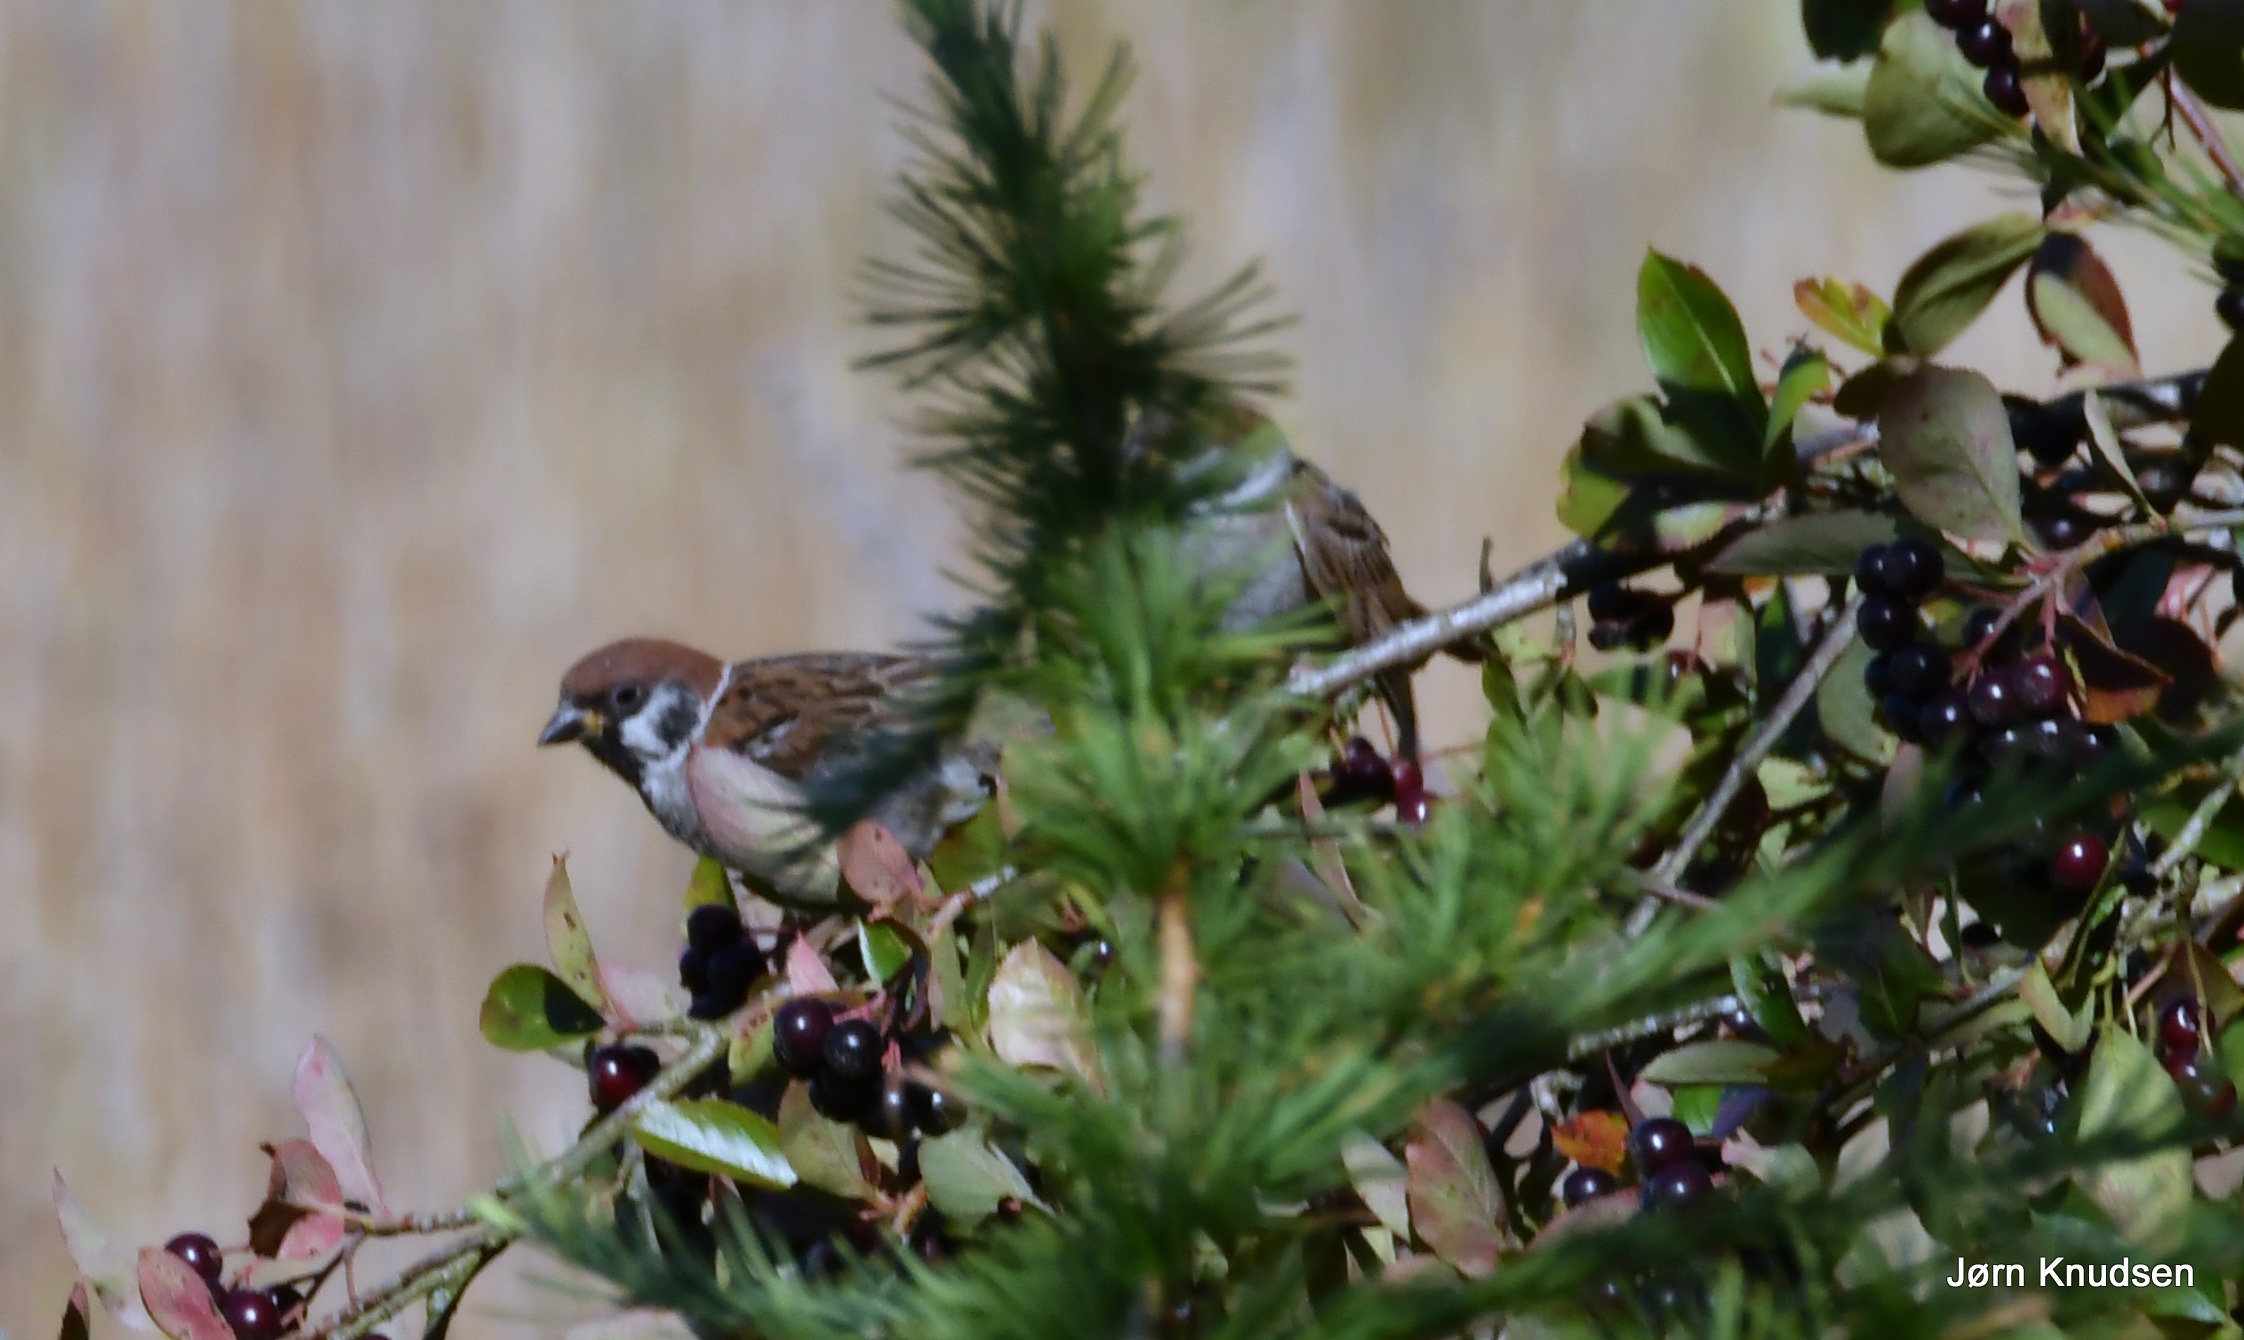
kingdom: Animalia
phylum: Chordata
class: Aves
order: Passeriformes
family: Passeridae
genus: Passer
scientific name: Passer montanus
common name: Skovspurv
